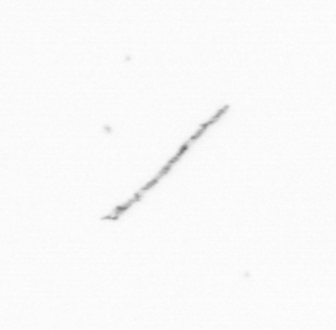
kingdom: Chromista
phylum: Ochrophyta
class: Bacillariophyceae
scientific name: Bacillariophyceae
